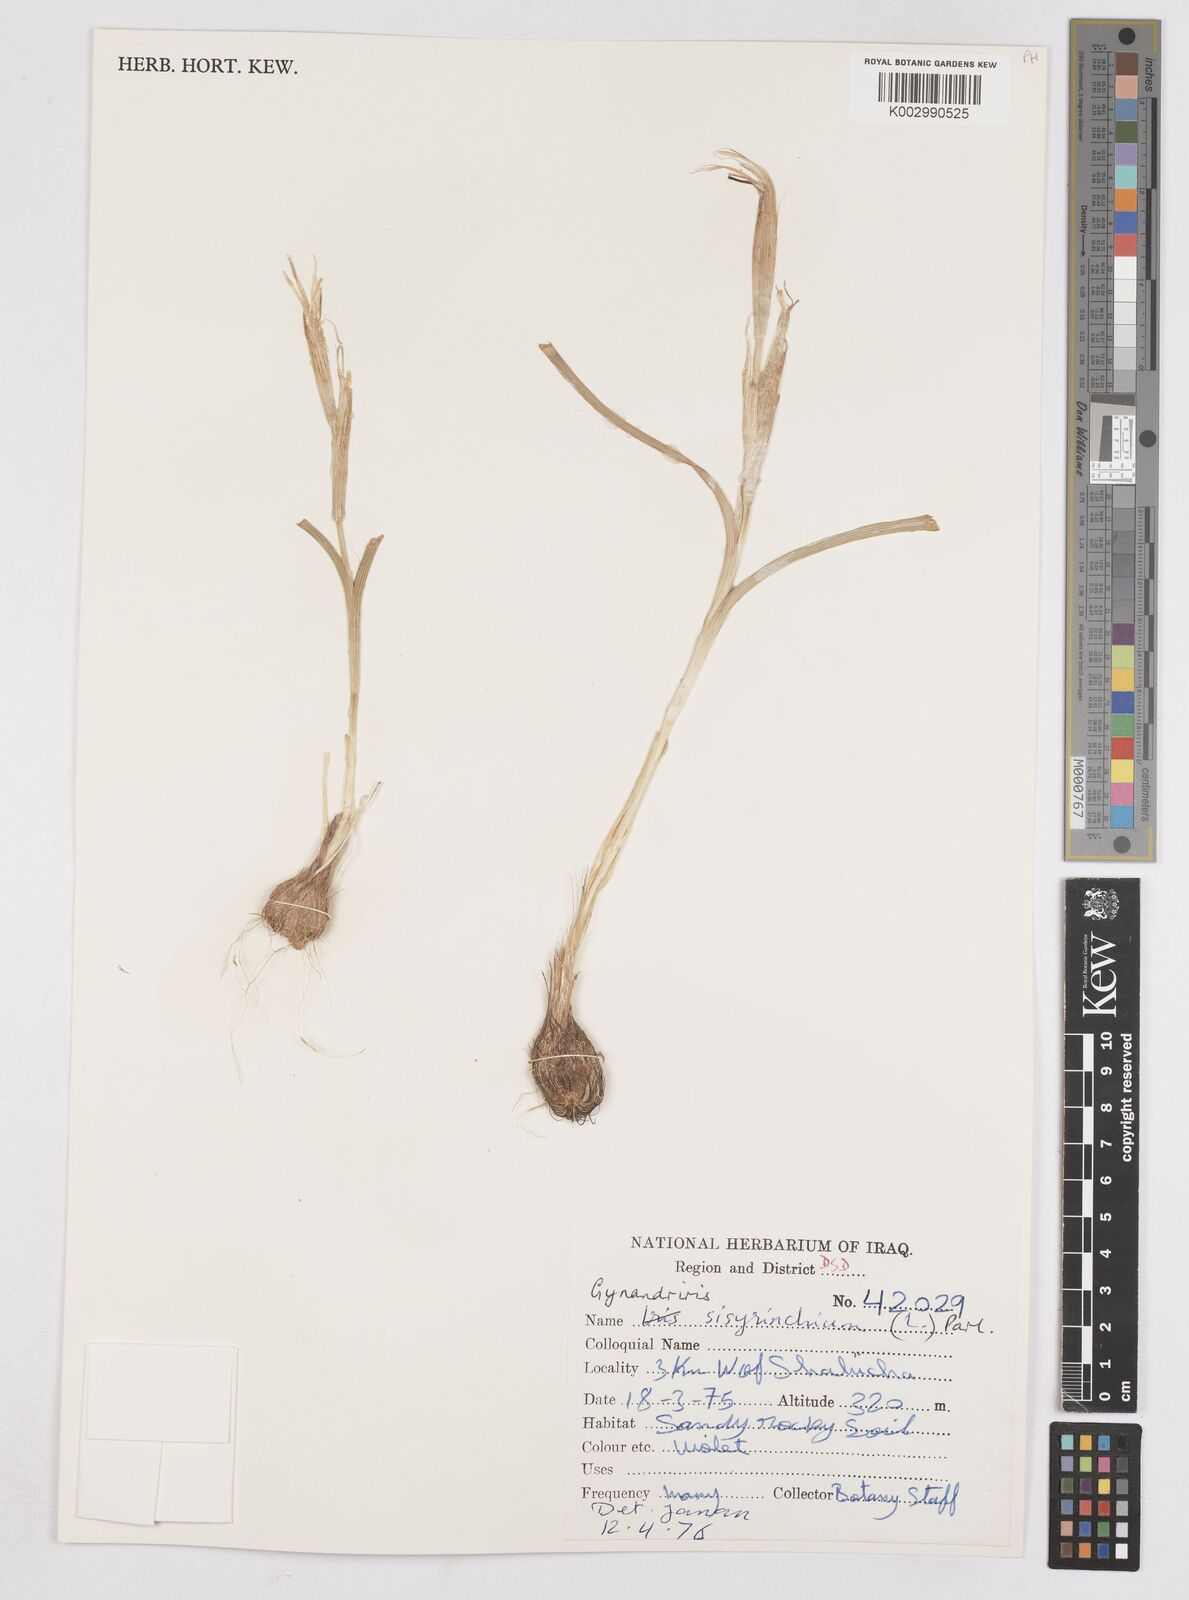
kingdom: Plantae
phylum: Tracheophyta
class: Liliopsida
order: Asparagales
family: Iridaceae
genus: Moraea
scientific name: Moraea sisyrinchium
